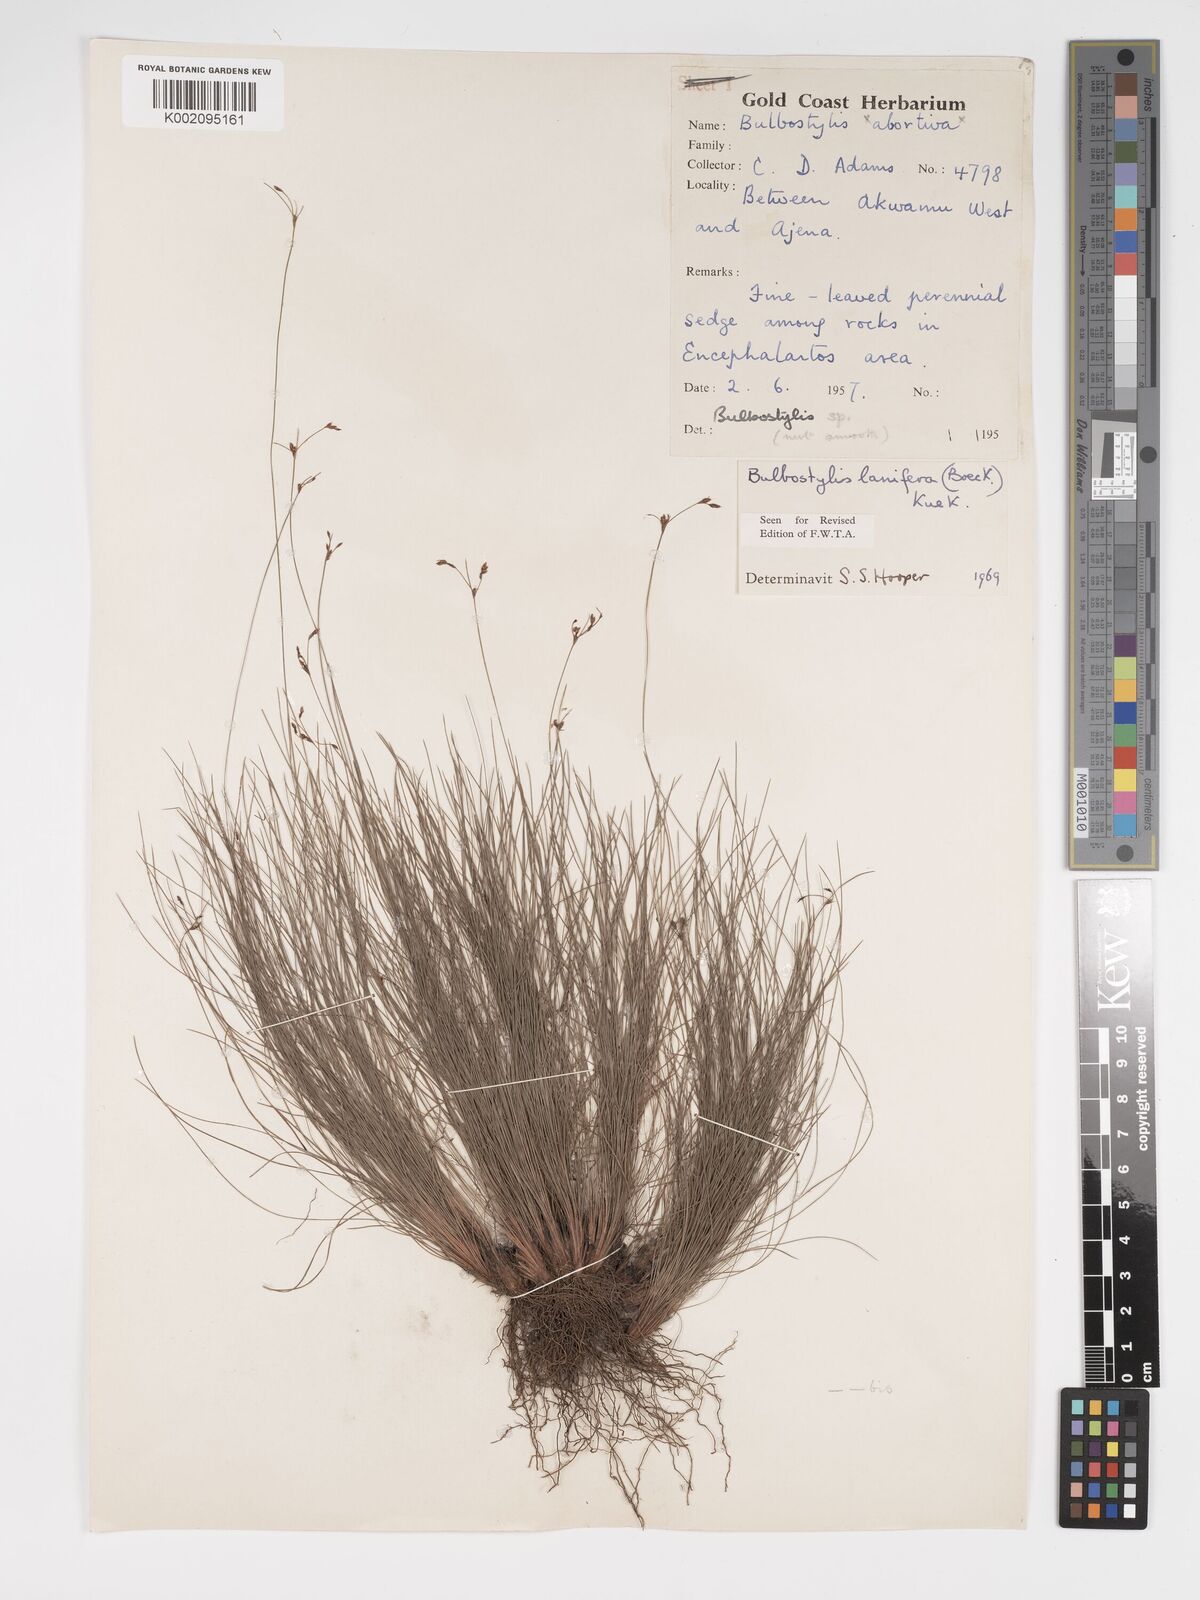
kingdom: Plantae
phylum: Tracheophyta
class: Liliopsida
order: Poales
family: Cyperaceae
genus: Bulbostylis
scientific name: Bulbostylis lanifera
